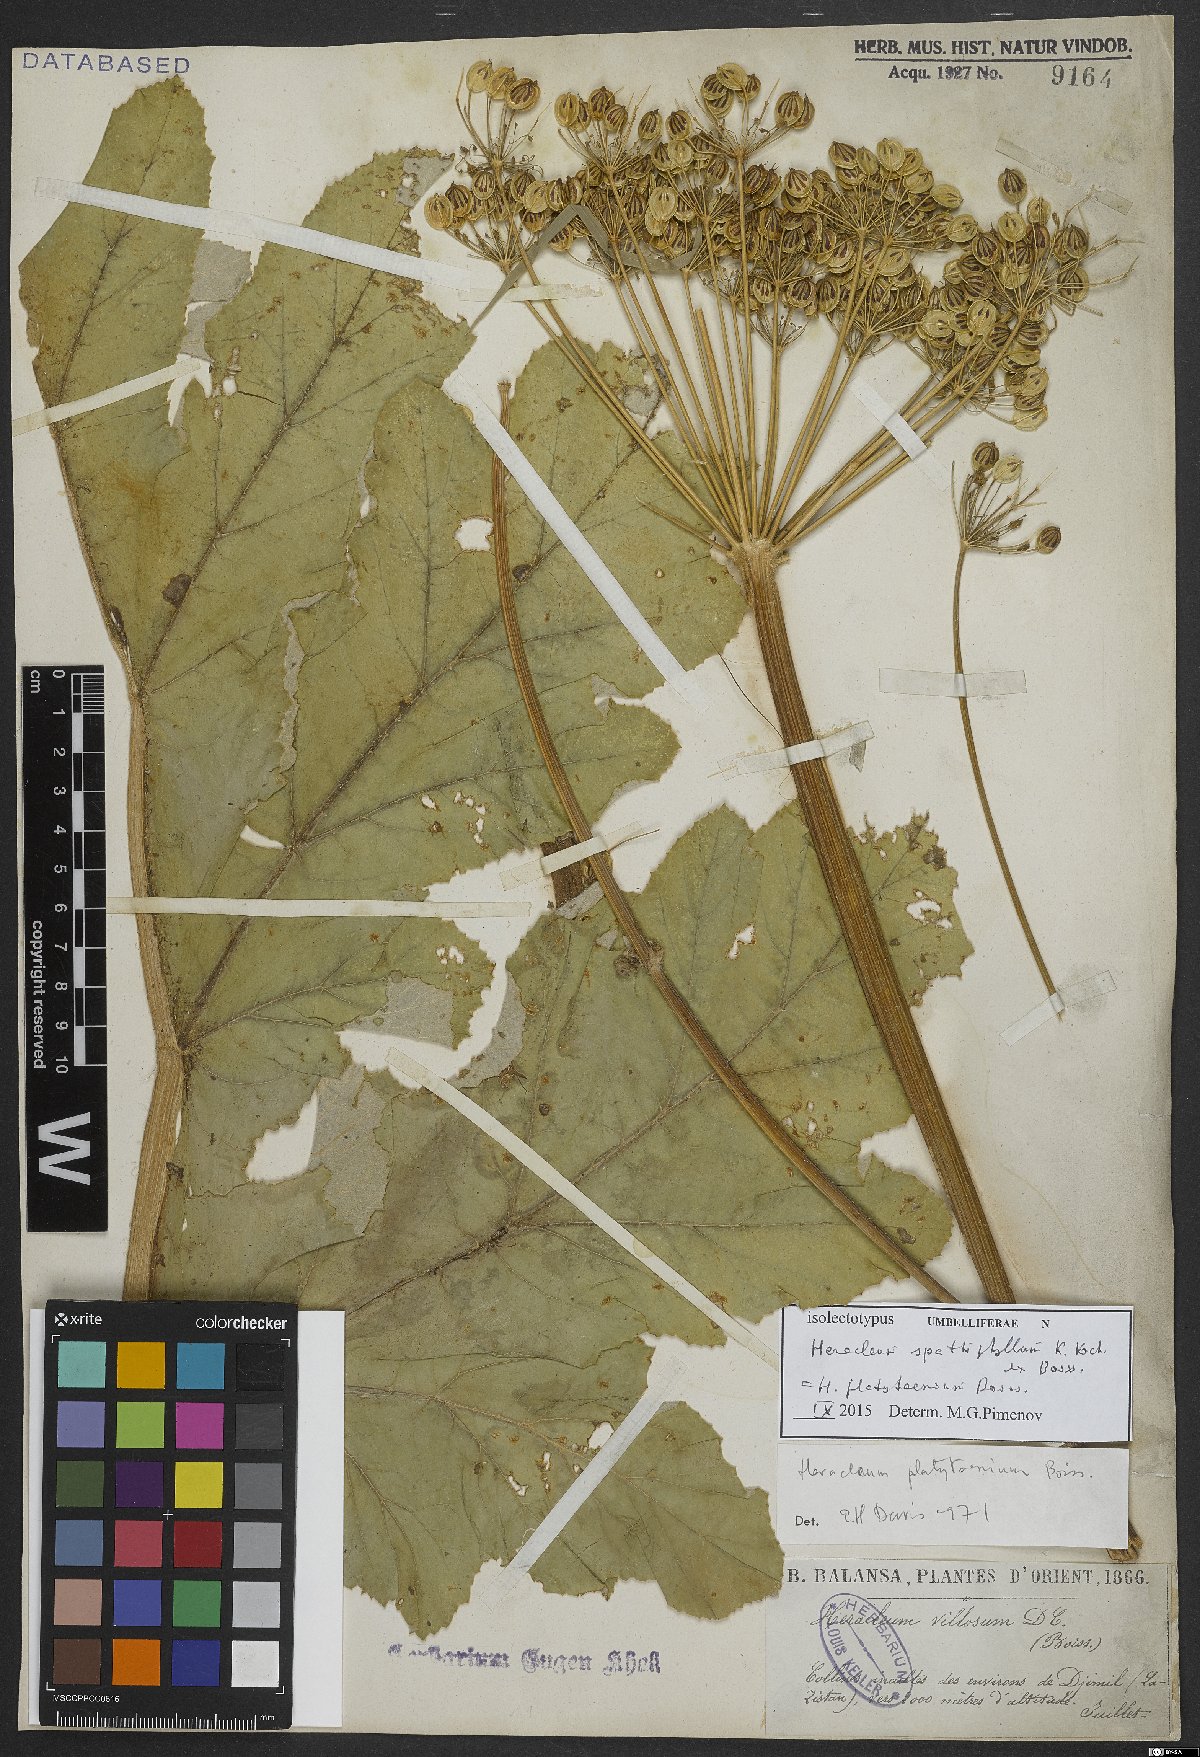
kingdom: Plantae
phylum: Tracheophyta
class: Magnoliopsida
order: Apiales
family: Apiaceae
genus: Heracleum
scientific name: Heracleum platytaenium
